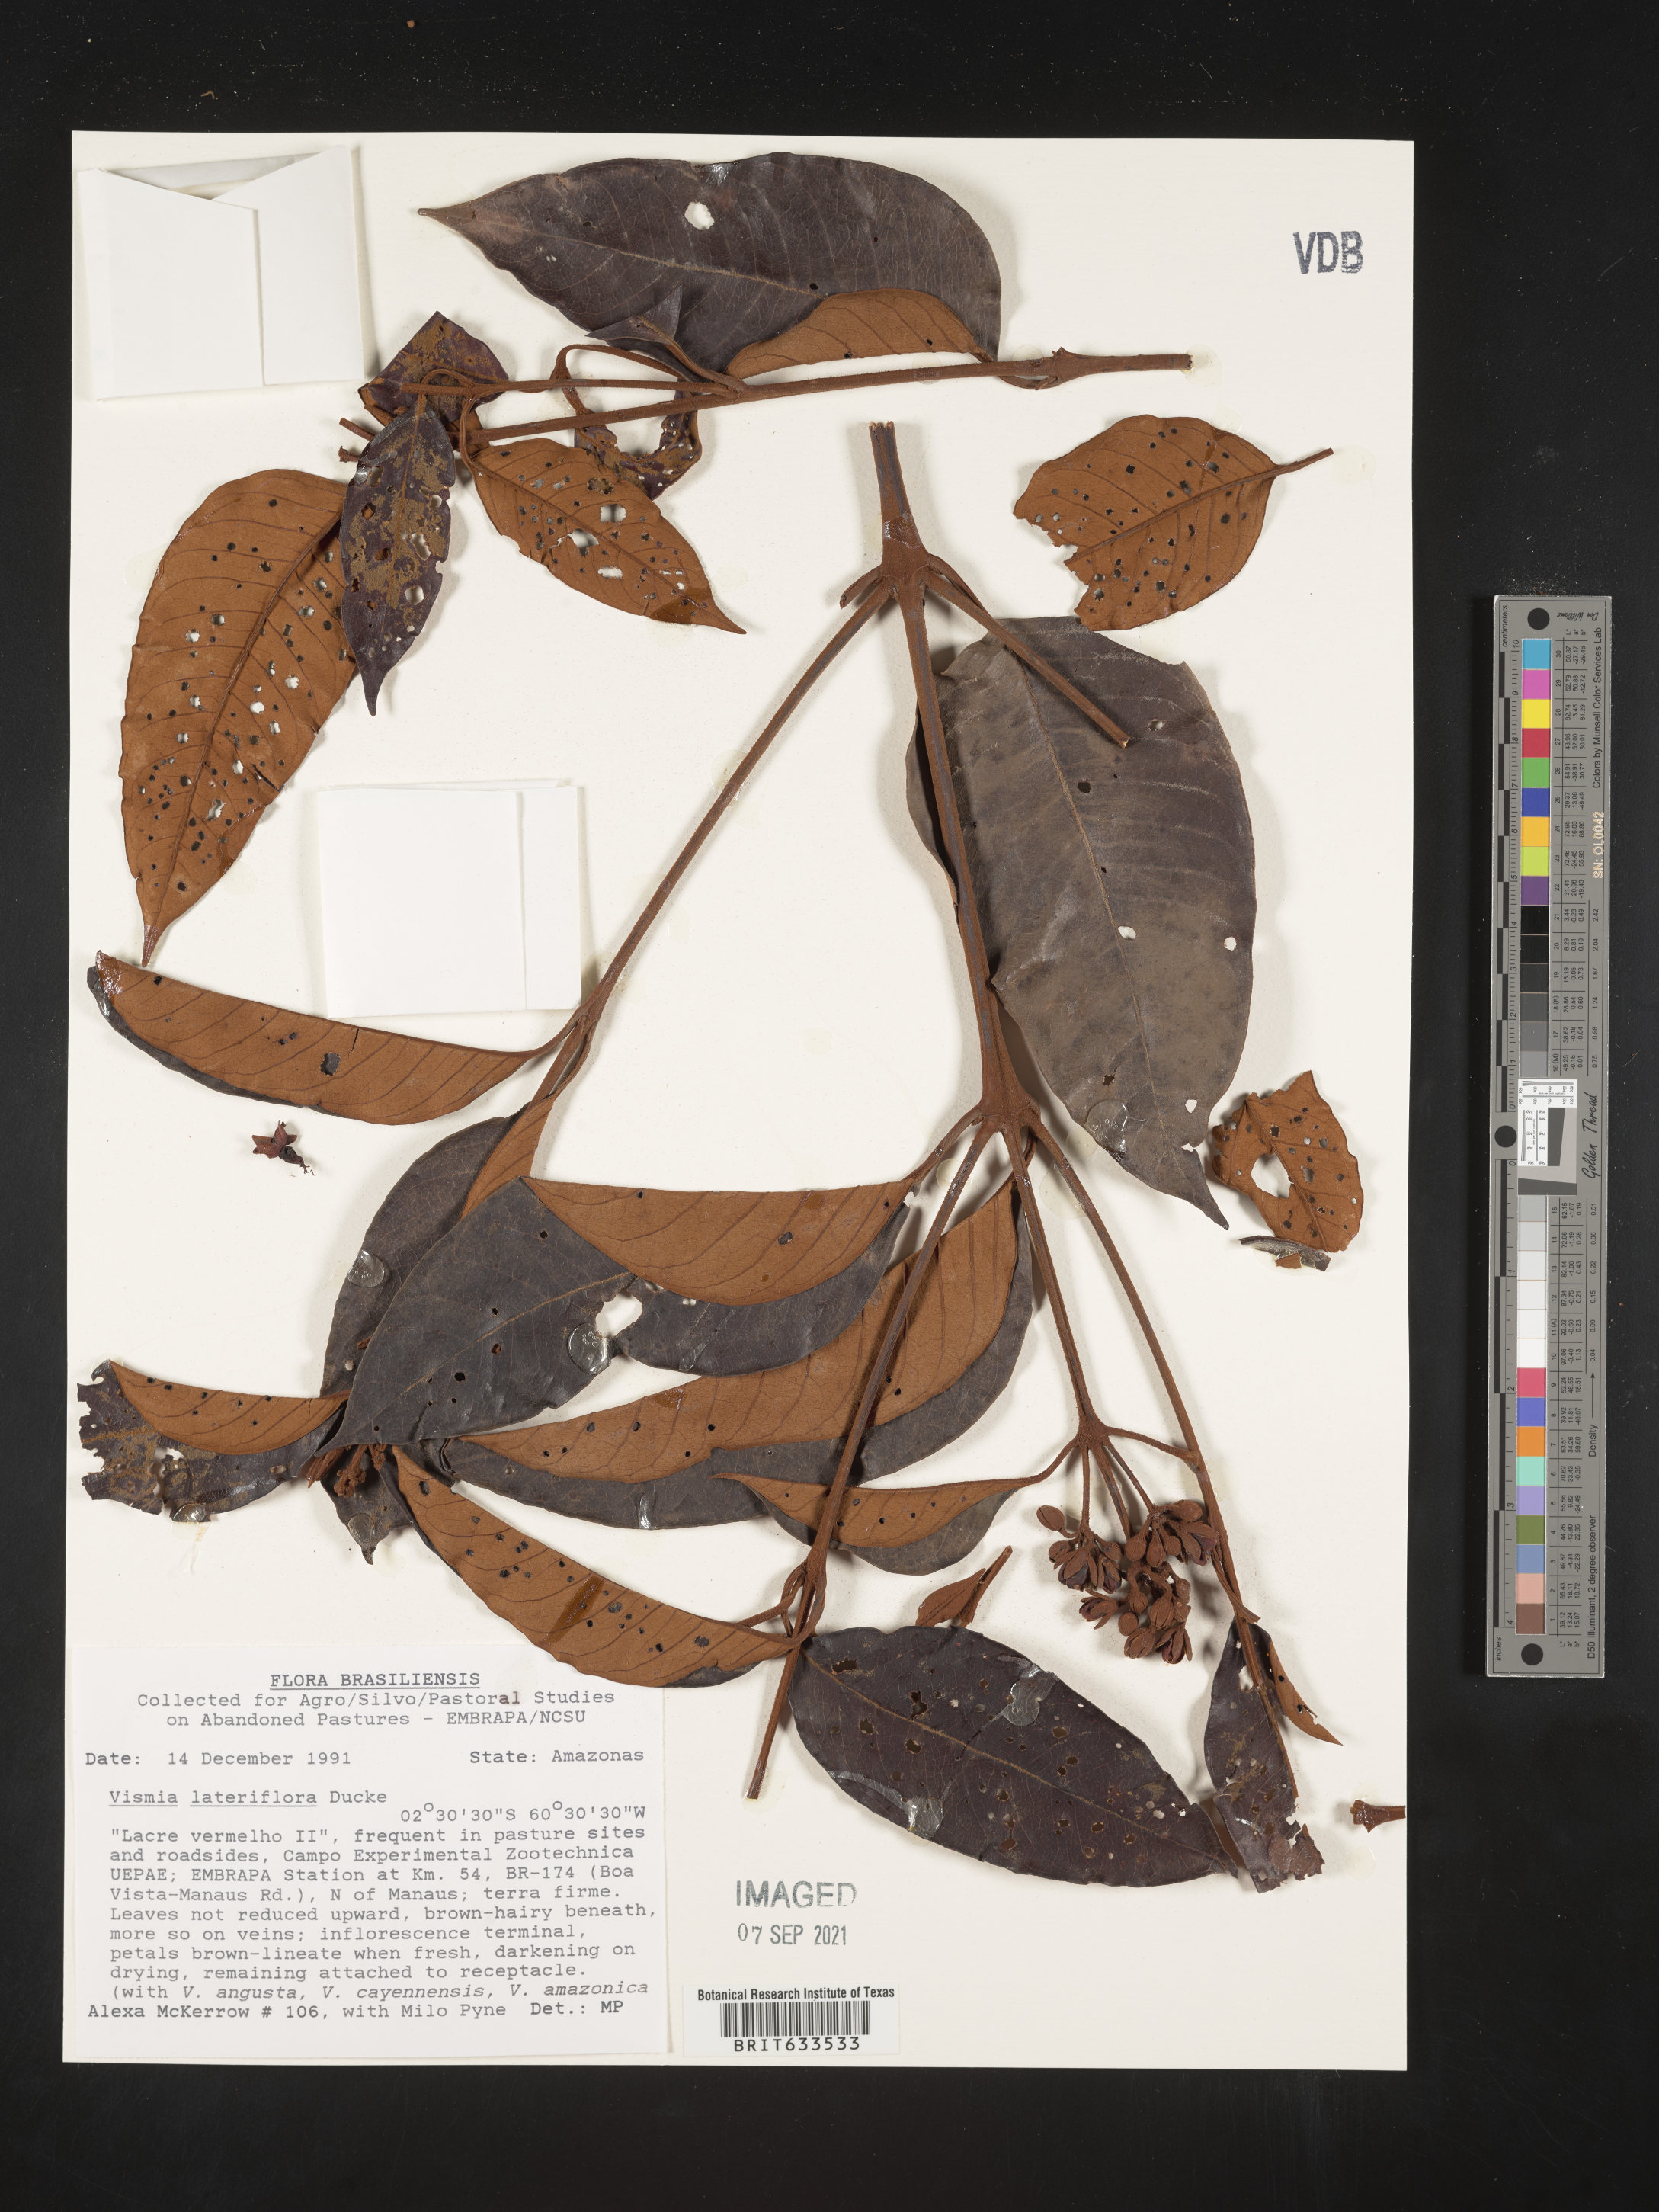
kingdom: Plantae
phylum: Tracheophyta
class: Magnoliopsida
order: Malpighiales
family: Hypericaceae
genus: Vismia
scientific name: Vismia
